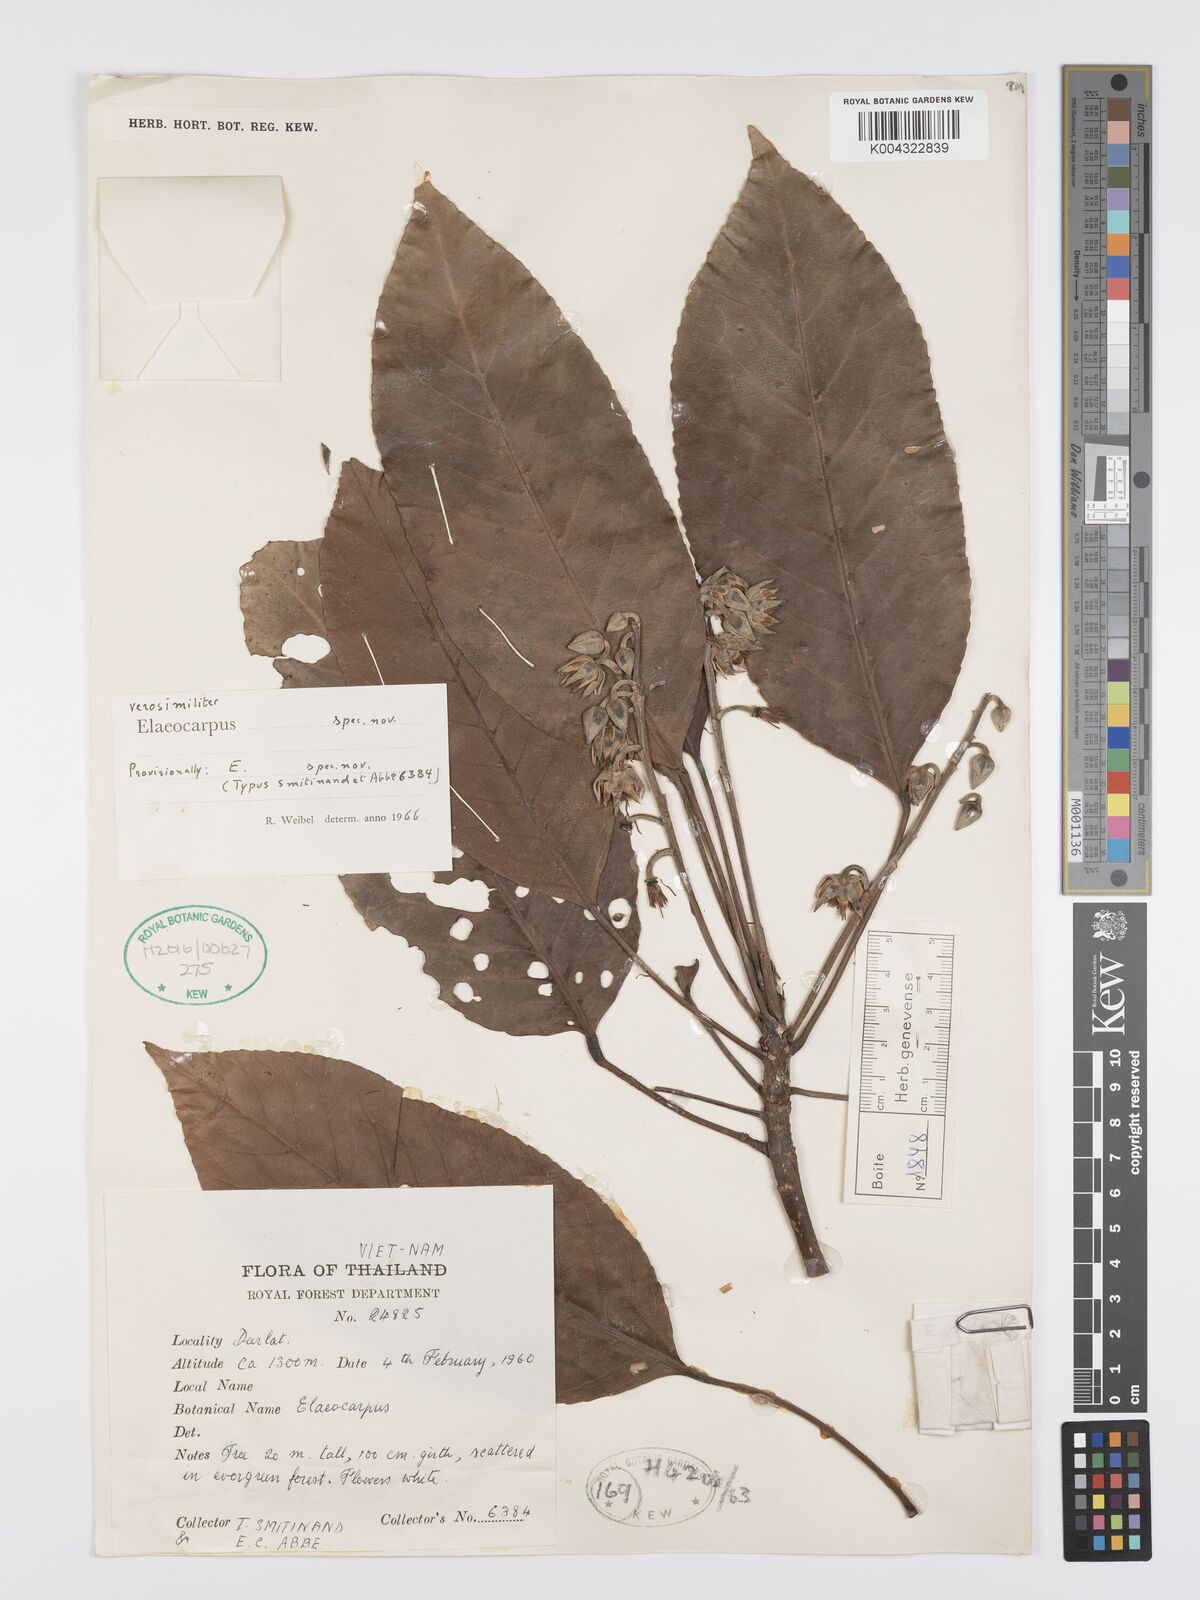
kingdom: Plantae
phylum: Tracheophyta
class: Magnoliopsida
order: Oxalidales
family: Elaeocarpaceae
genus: Elaeocarpus
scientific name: Elaeocarpus
